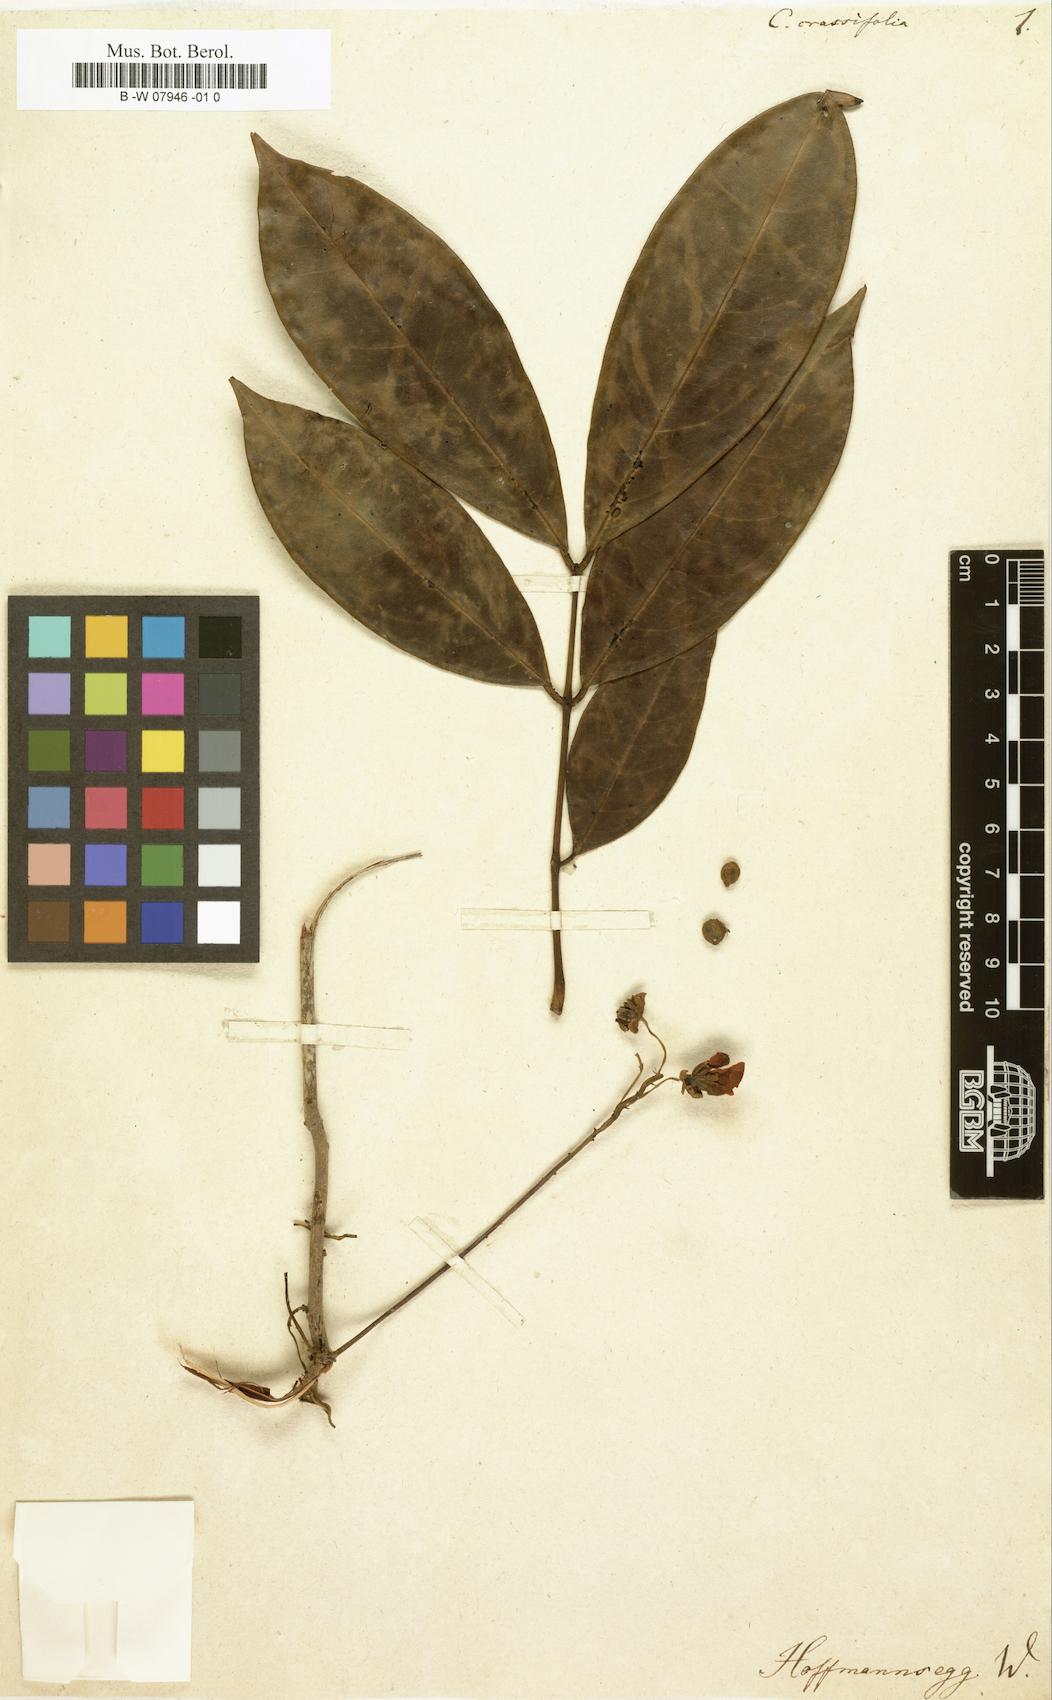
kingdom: Plantae
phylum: Tracheophyta
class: Magnoliopsida
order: Fabales
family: Fabaceae
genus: Senna
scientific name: Senna corymbosa
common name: Argentine senna
